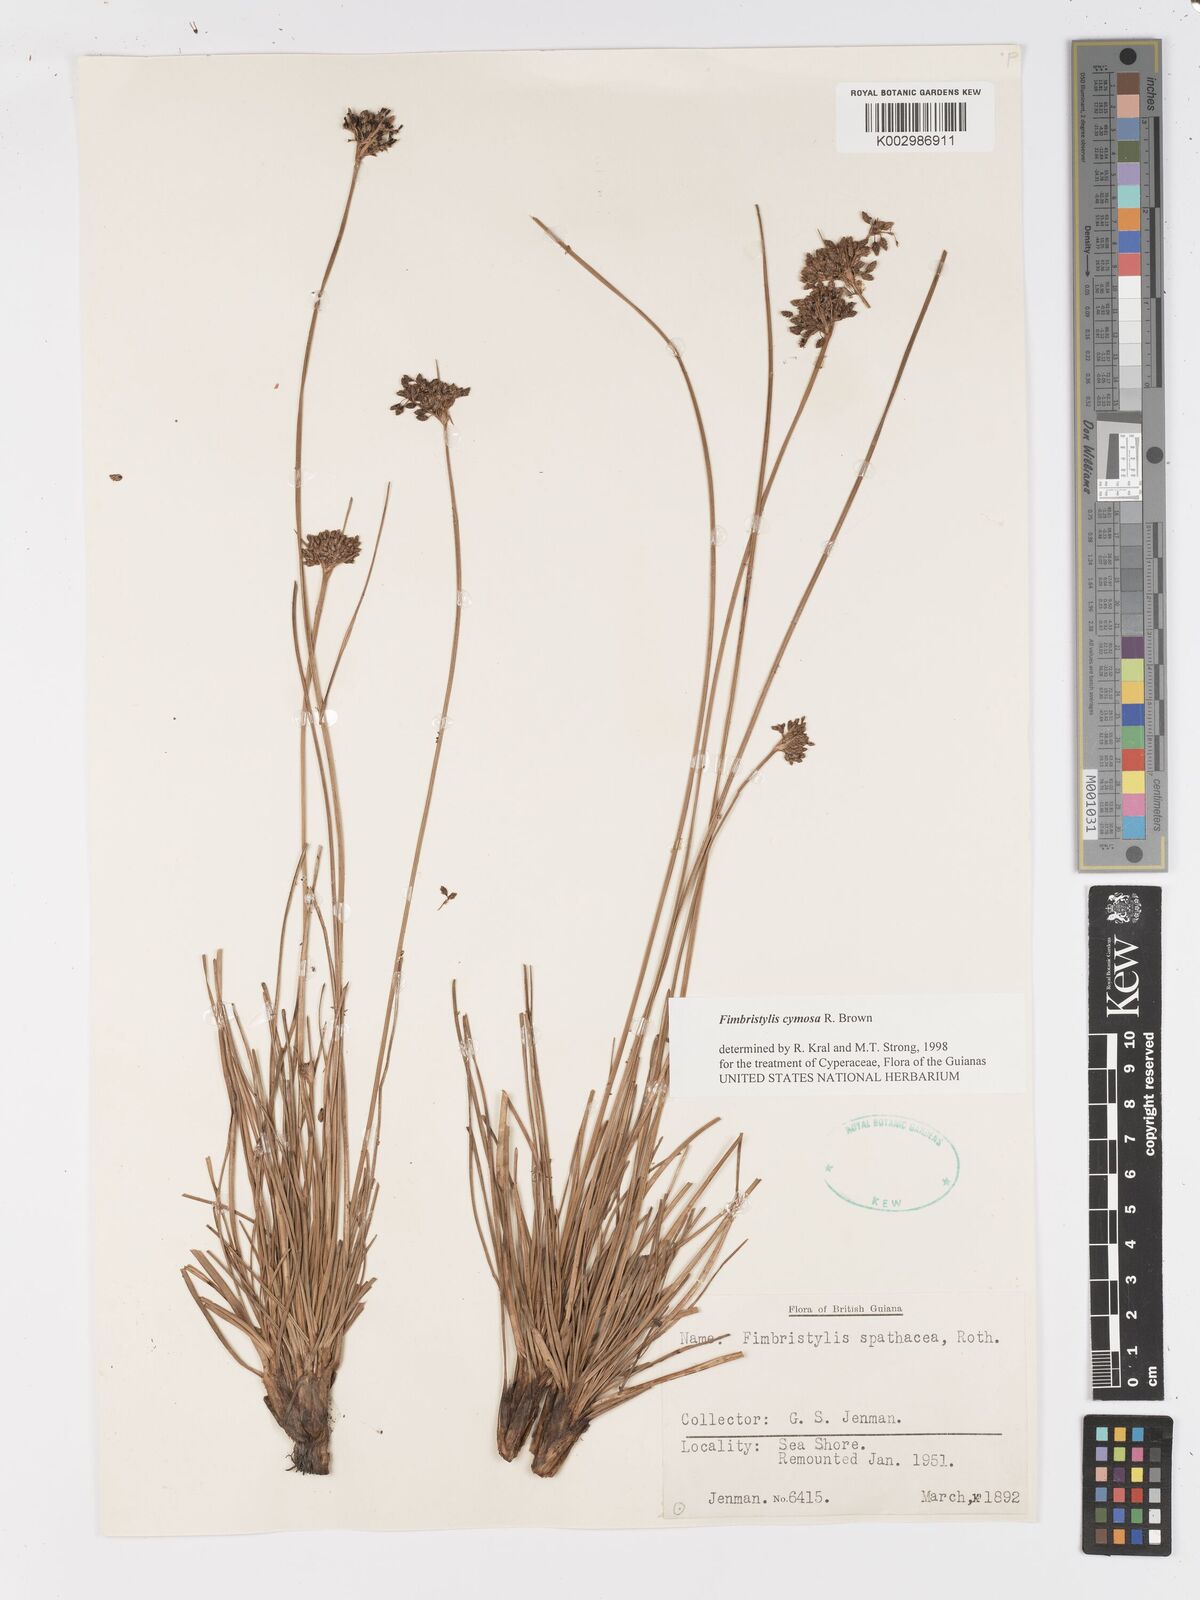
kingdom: Plantae
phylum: Tracheophyta
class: Liliopsida
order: Poales
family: Cyperaceae
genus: Fimbristylis
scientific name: Fimbristylis cymosa
